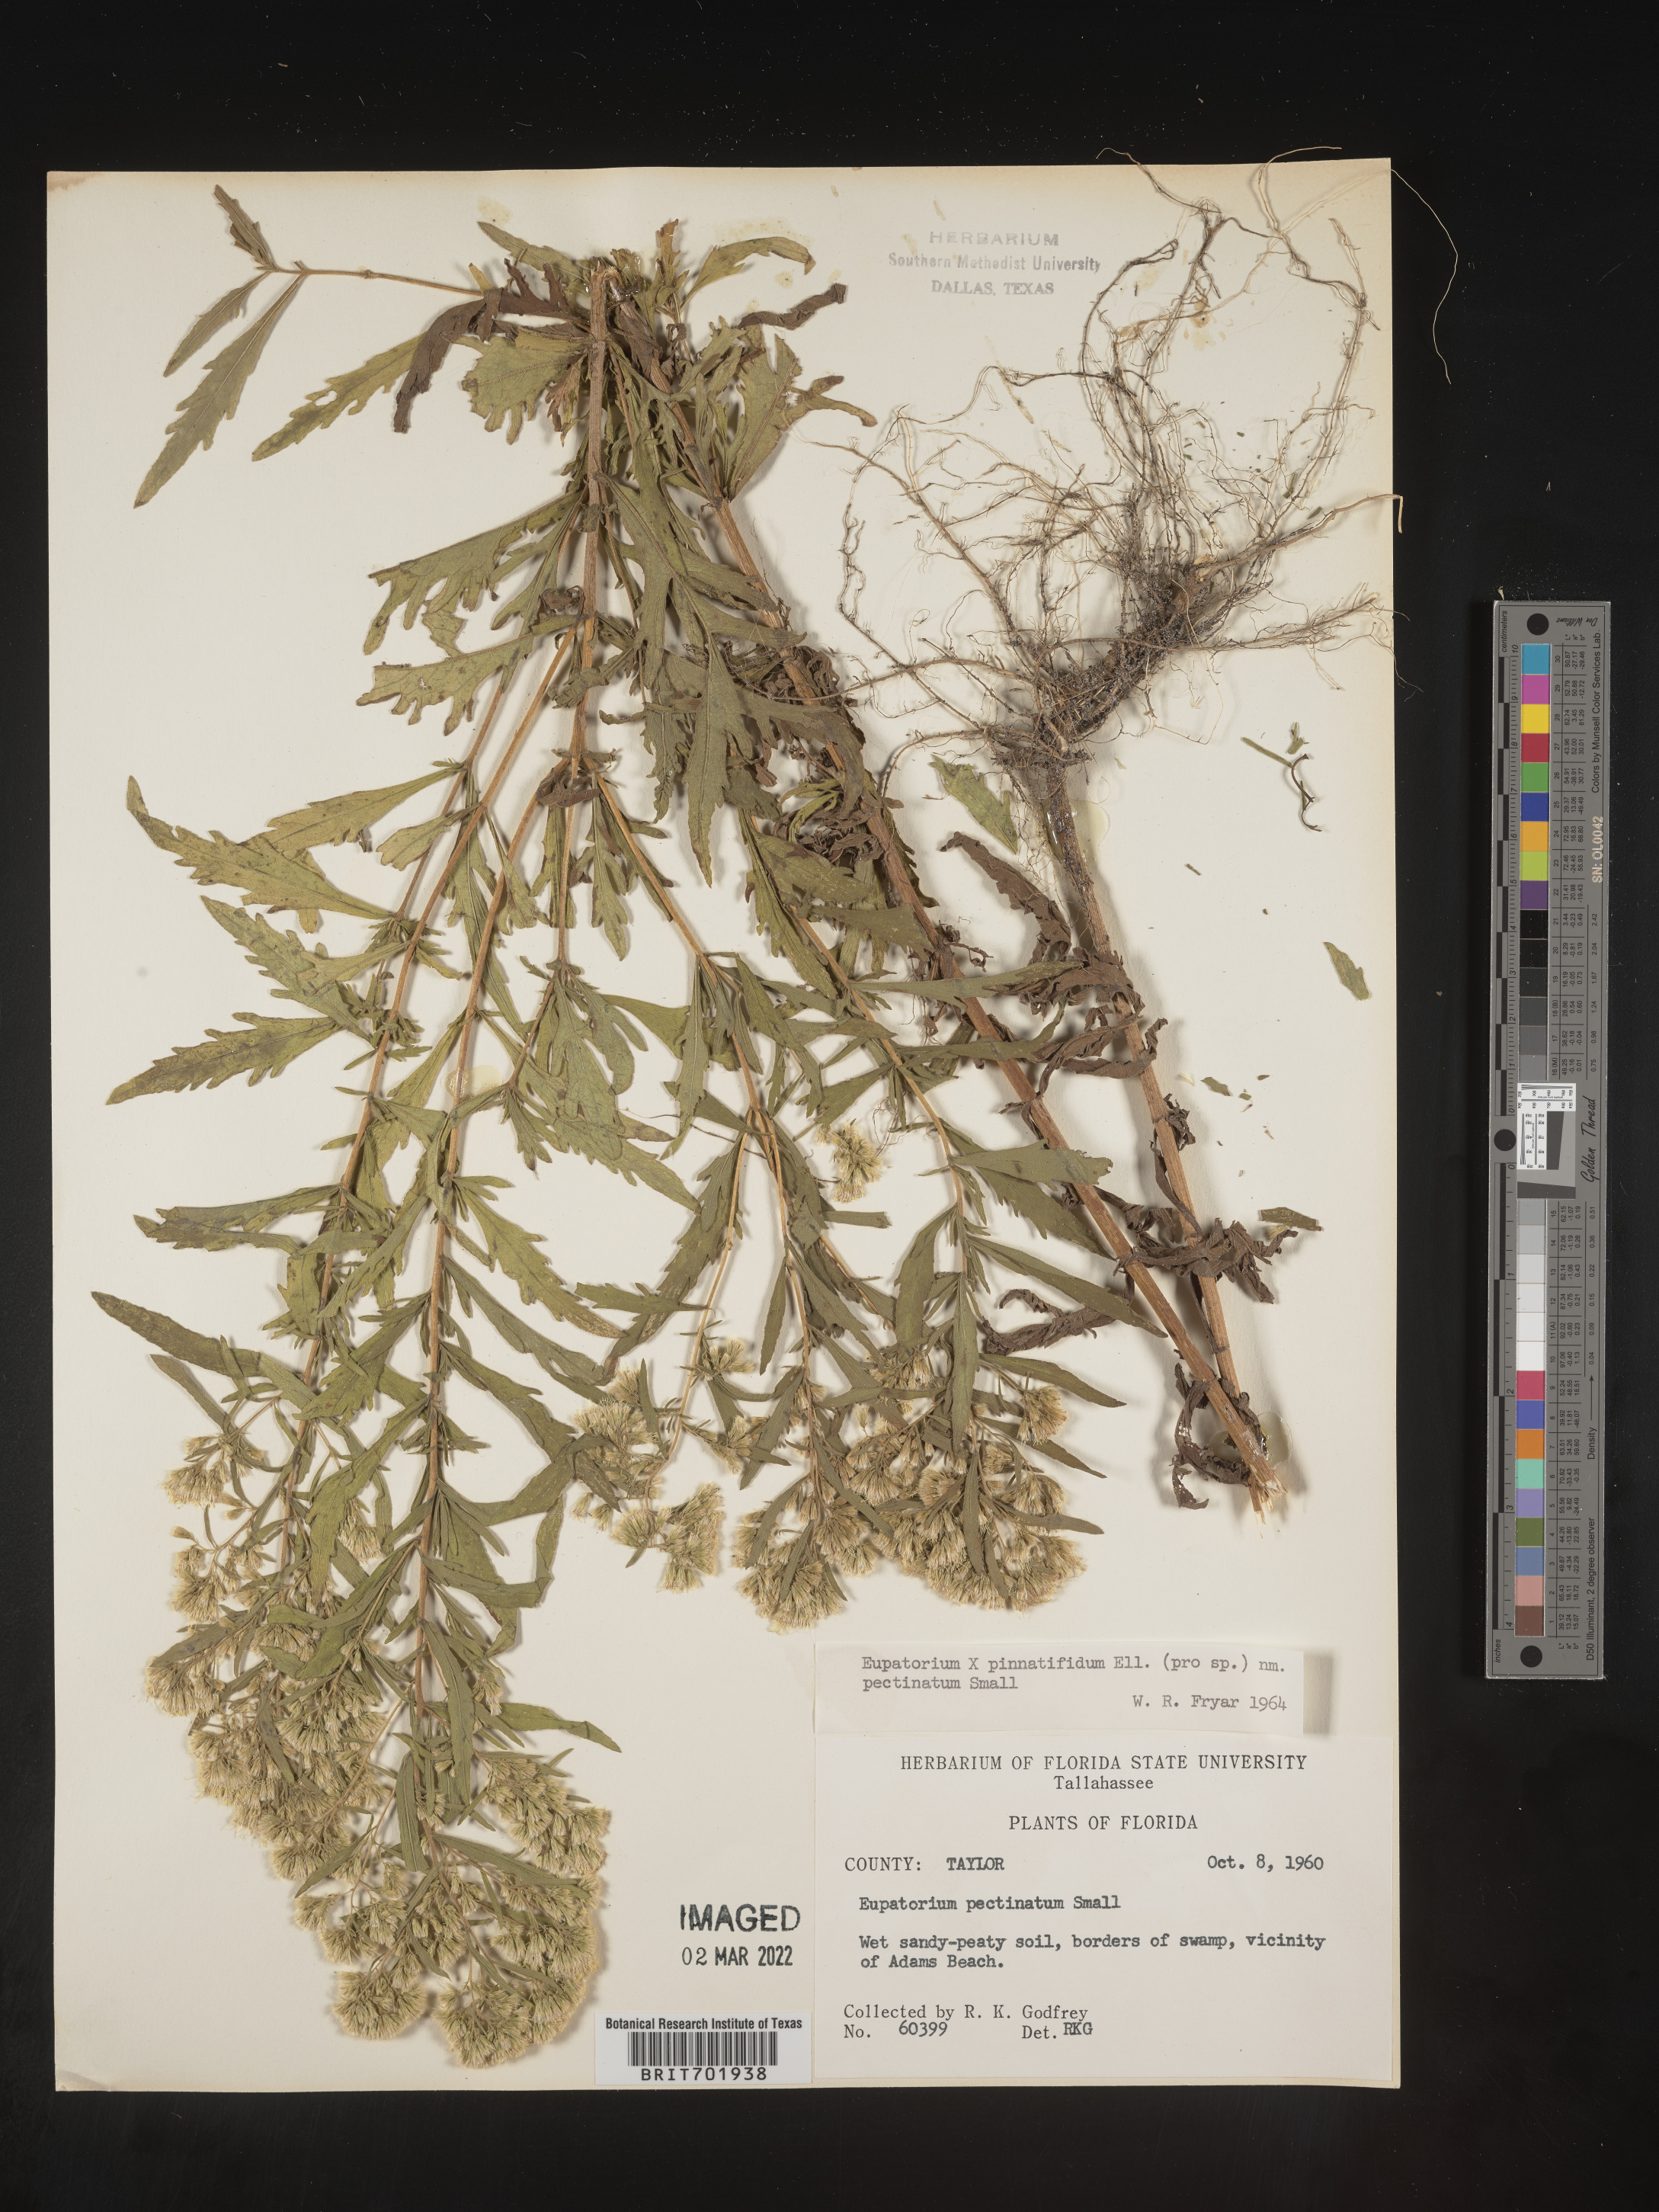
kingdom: Plantae
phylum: Tracheophyta
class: Magnoliopsida
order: Asterales
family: Asteraceae
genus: Eupatorium
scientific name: Eupatorium pinnatifidum
